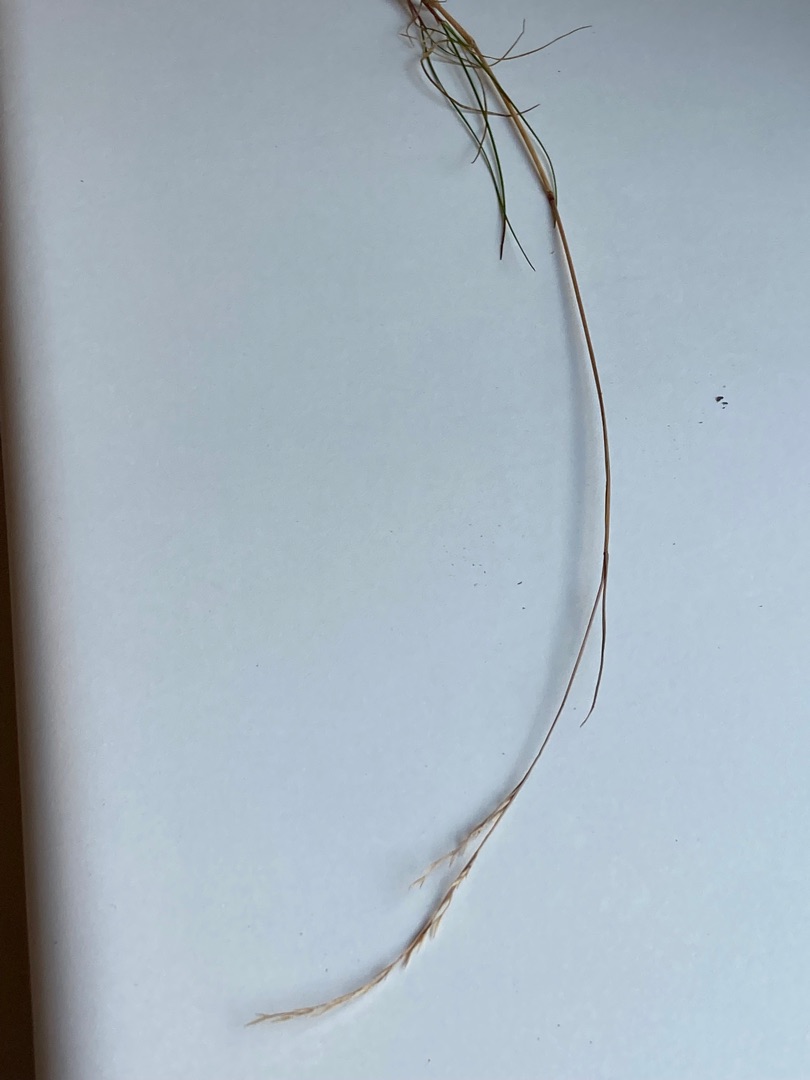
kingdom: Plantae
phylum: Tracheophyta
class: Liliopsida
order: Poales
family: Poaceae
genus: Festuca
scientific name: Festuca rubra
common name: Rød svingel
